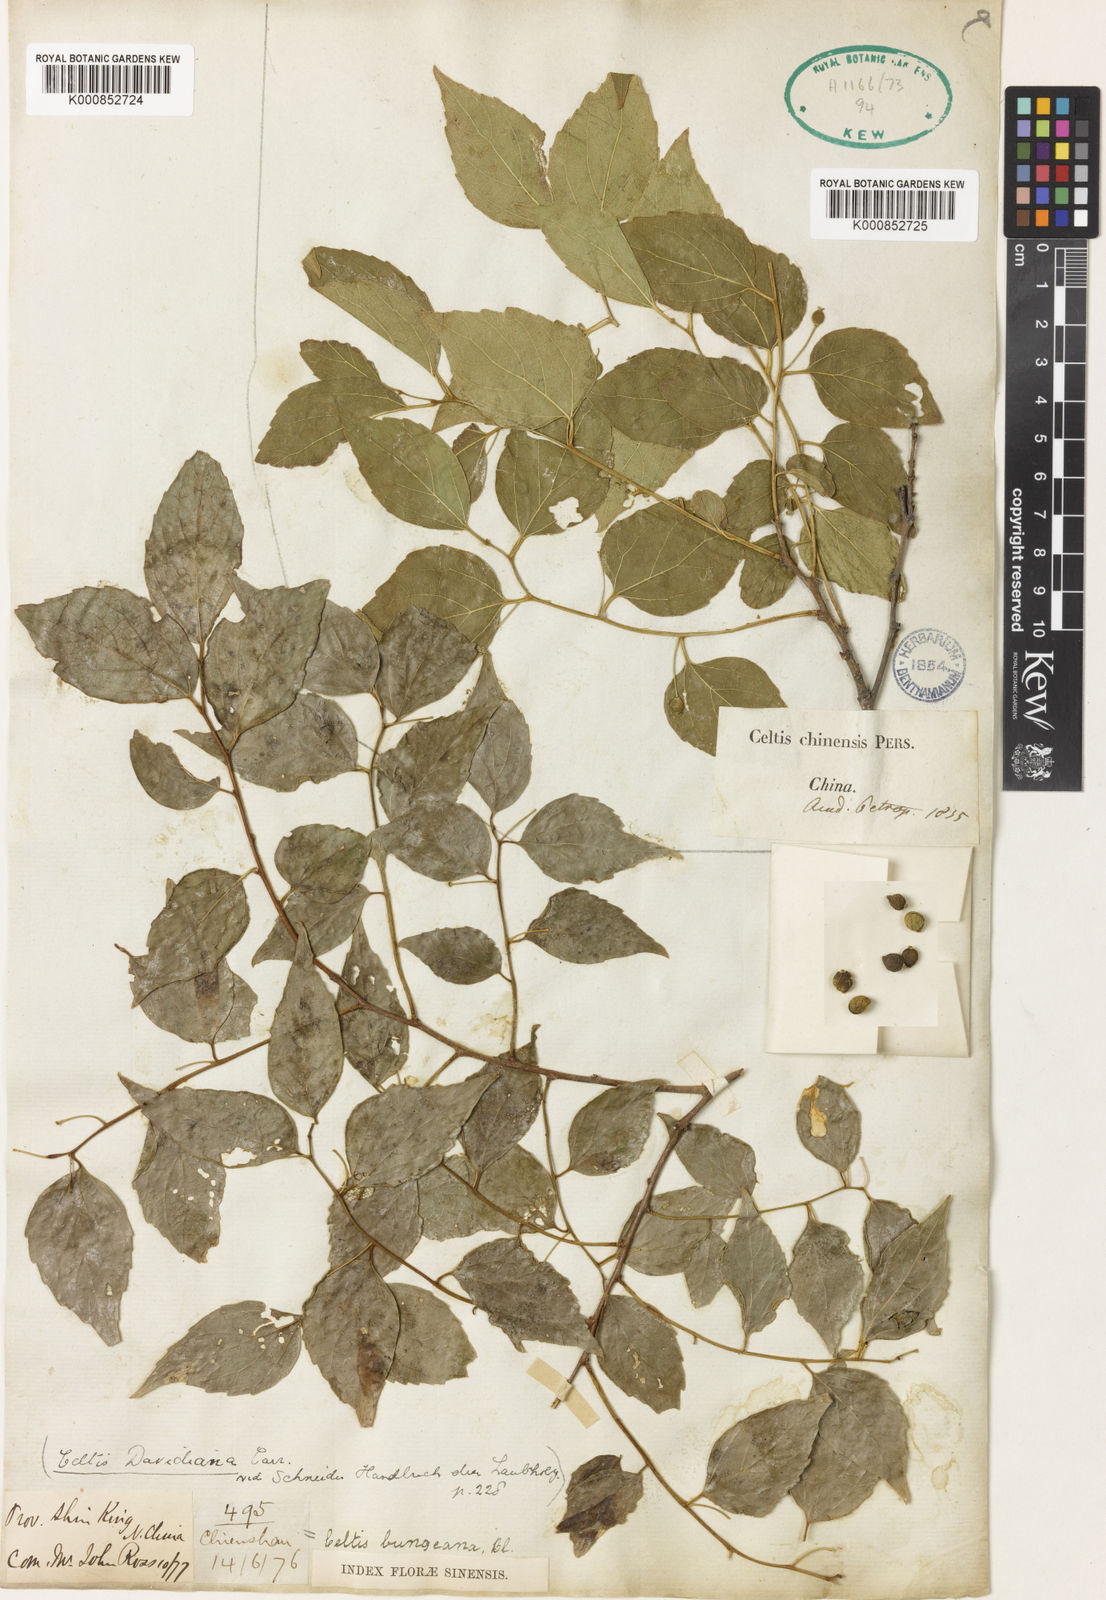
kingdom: Plantae
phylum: Tracheophyta
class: Magnoliopsida
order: Rosales
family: Cannabaceae
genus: Celtis
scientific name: Celtis bungeana
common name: Bunge's hackberry
